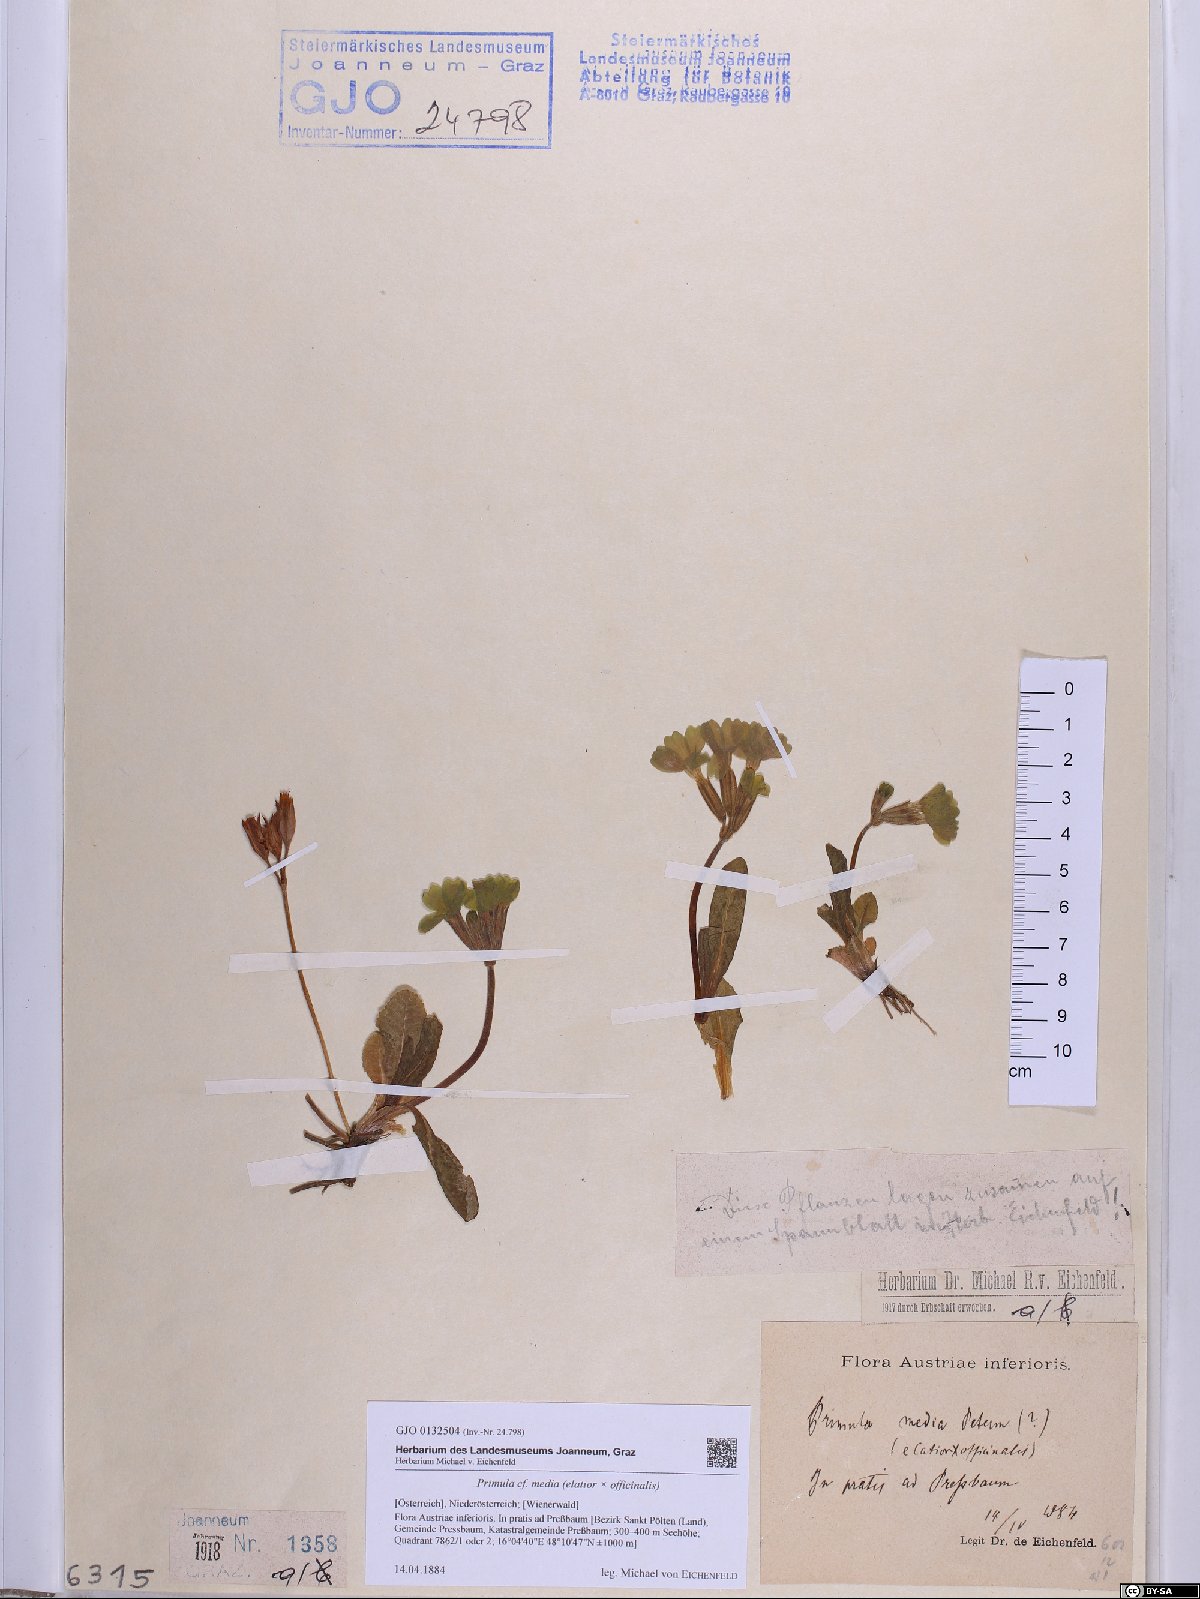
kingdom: Plantae
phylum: Tracheophyta
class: Magnoliopsida
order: Ericales
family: Primulaceae
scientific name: Primulaceae
